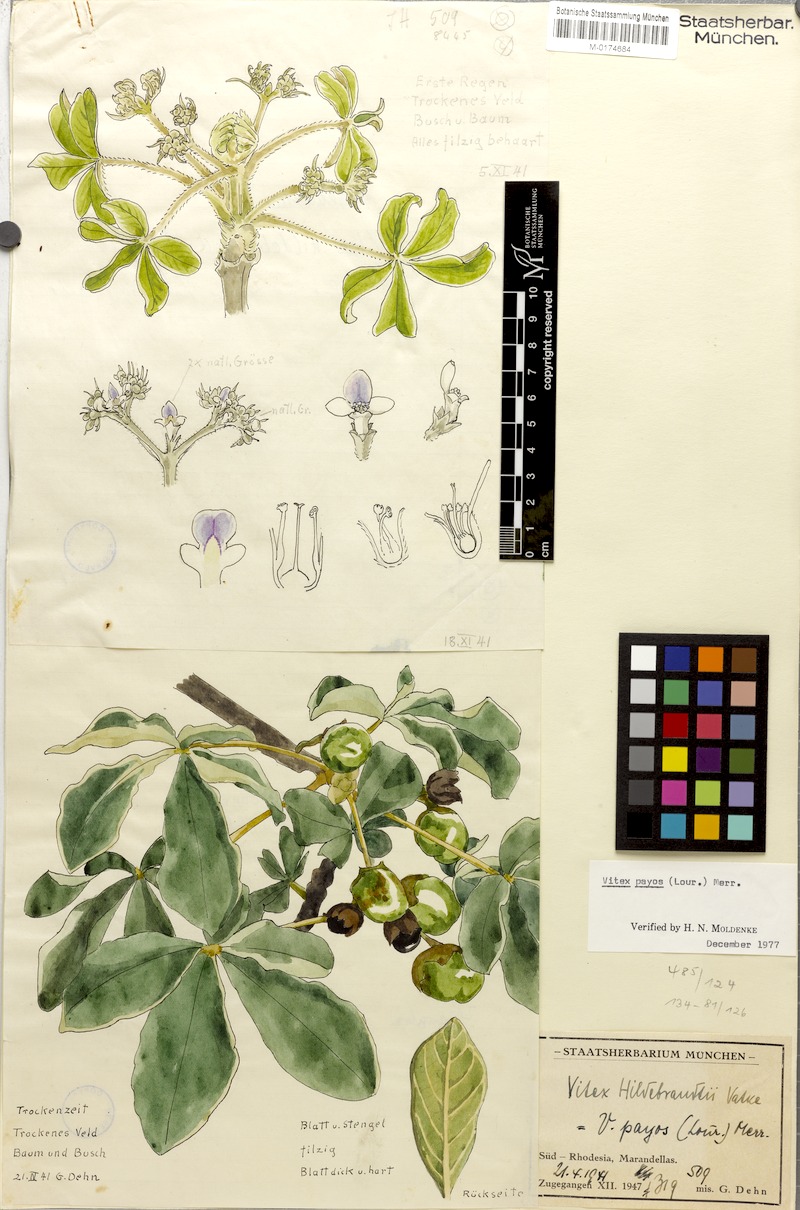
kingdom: Plantae
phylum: Tracheophyta
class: Magnoliopsida
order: Lamiales
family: Lamiaceae
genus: Vitex
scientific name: Vitex payos
